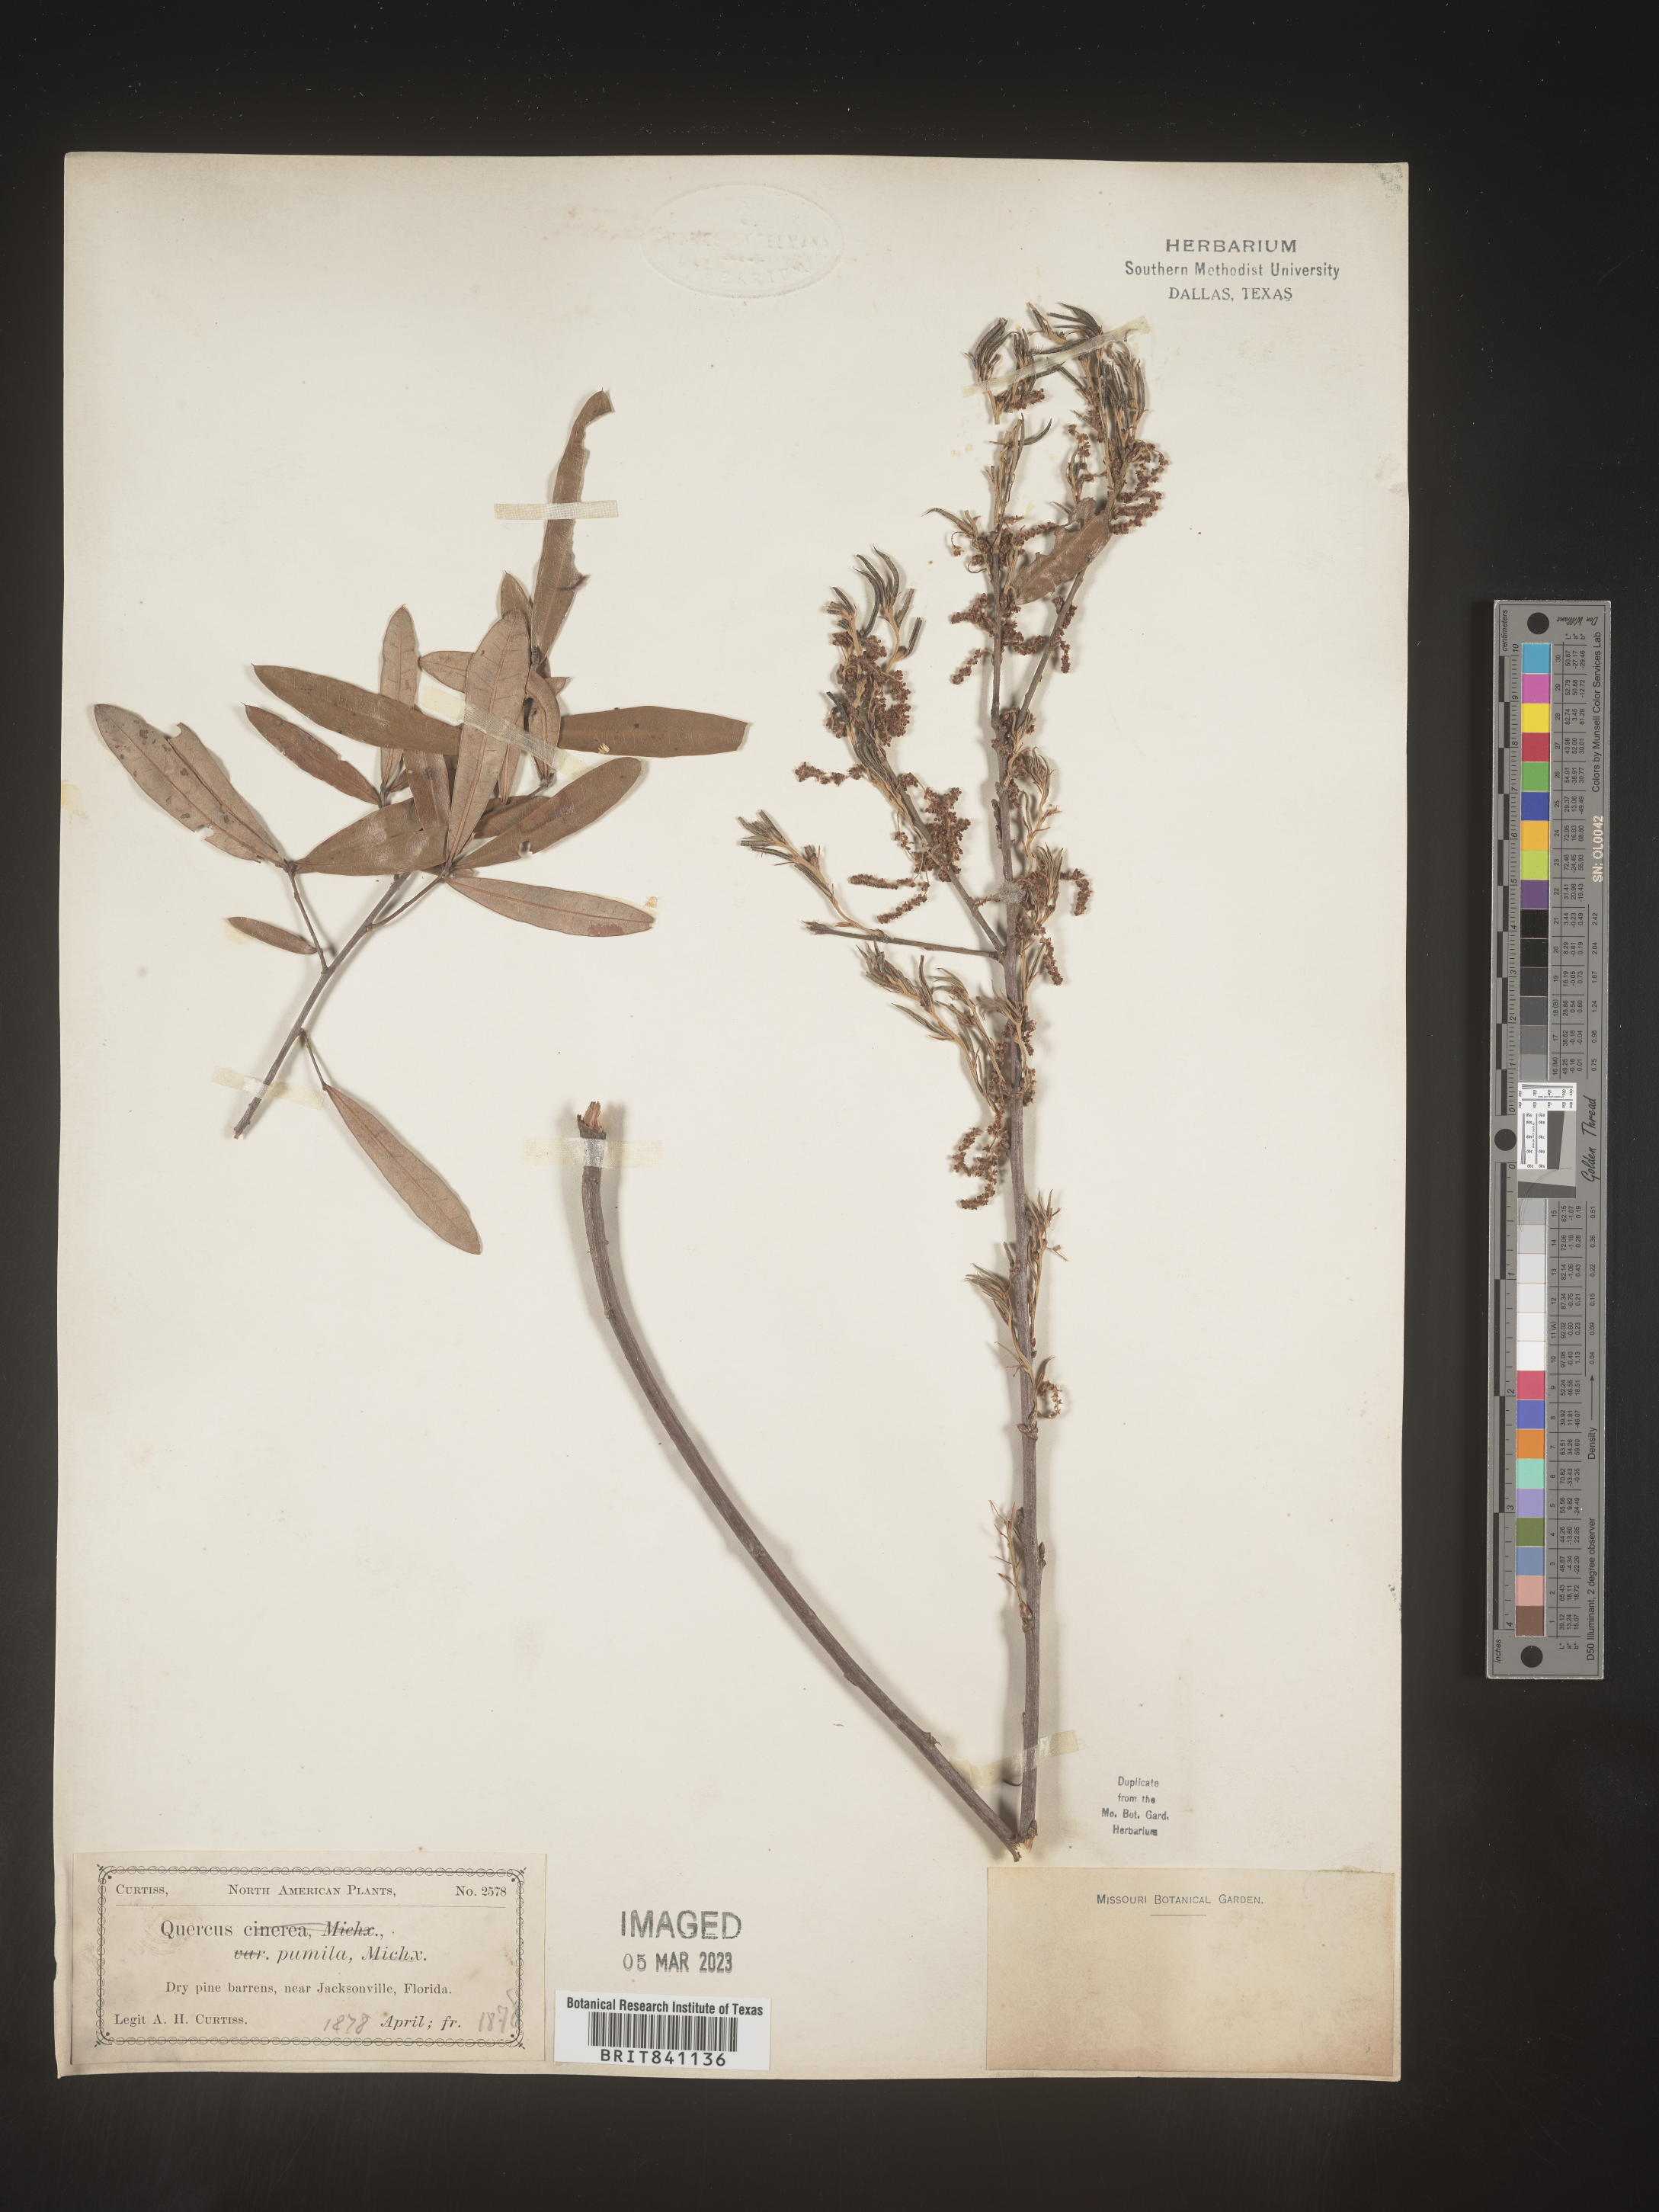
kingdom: Plantae
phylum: Tracheophyta
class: Magnoliopsida
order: Fagales
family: Fagaceae
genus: Quercus
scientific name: Quercus pumila
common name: Runner oak
